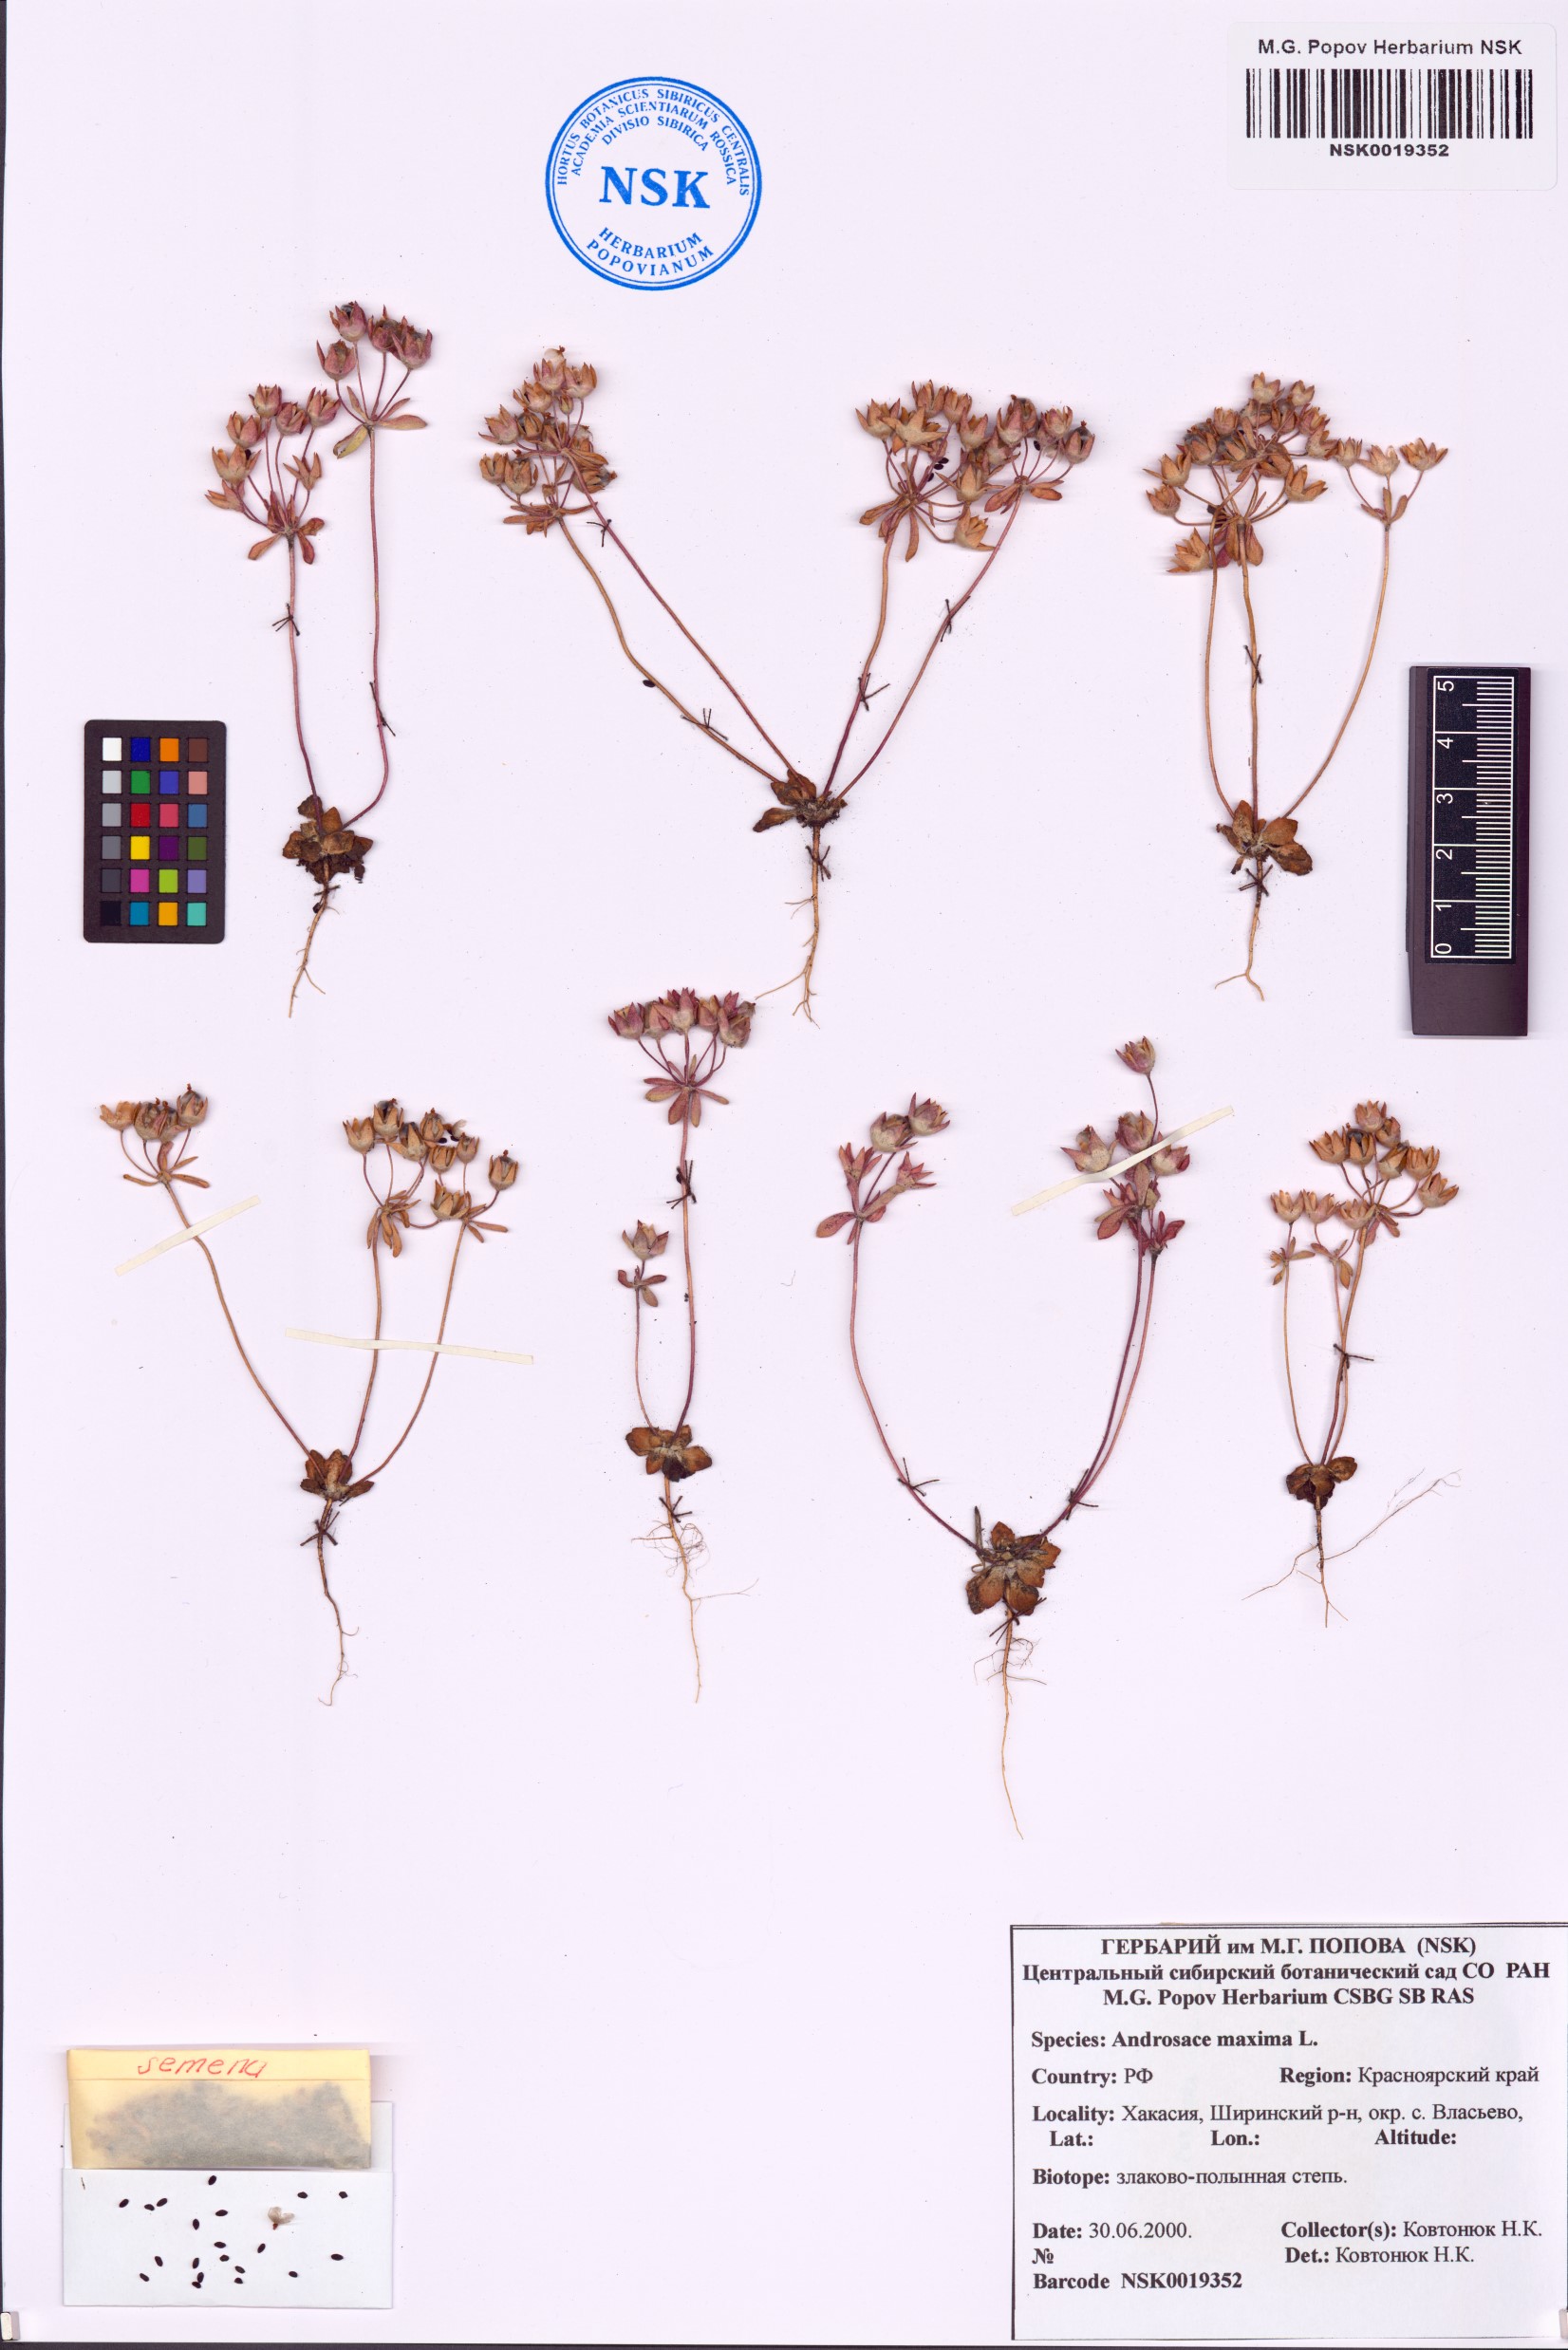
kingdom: Plantae
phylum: Tracheophyta
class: Magnoliopsida
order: Ericales
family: Primulaceae
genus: Androsace
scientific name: Androsace maxima
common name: Annual androsace
